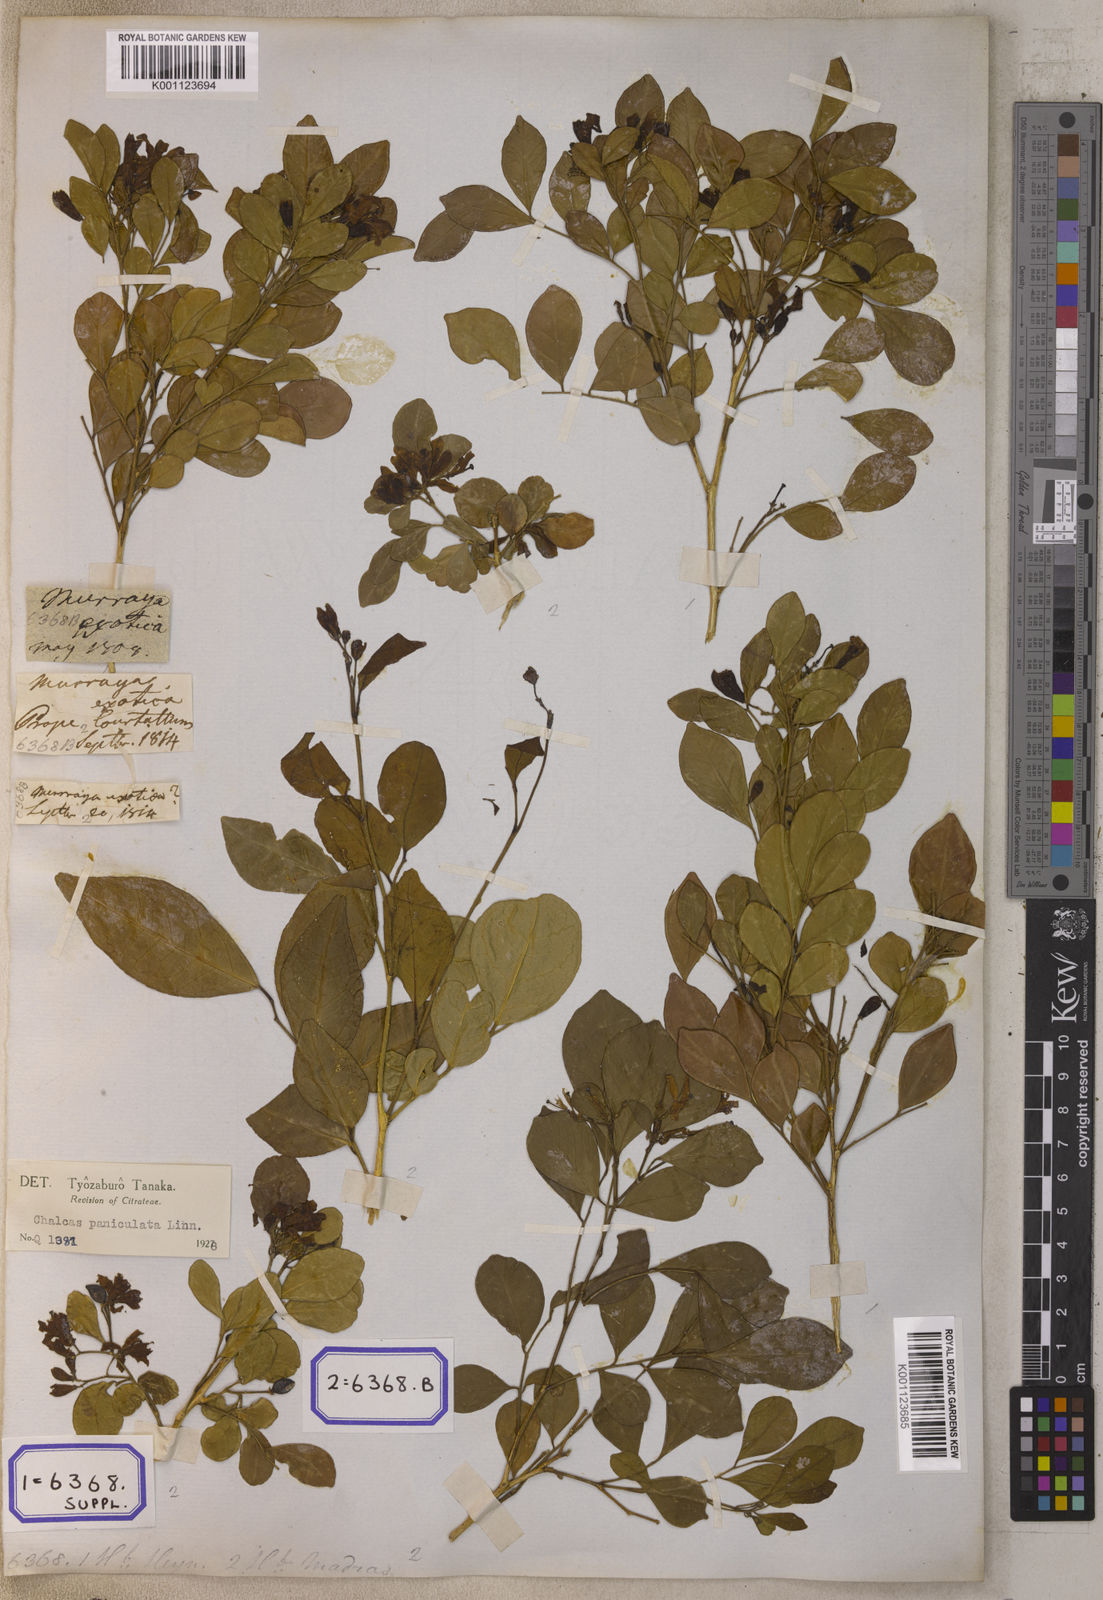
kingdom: Plantae
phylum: Tracheophyta
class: Magnoliopsida
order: Sapindales
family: Rutaceae
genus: Murraya
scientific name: Murraya paniculata
